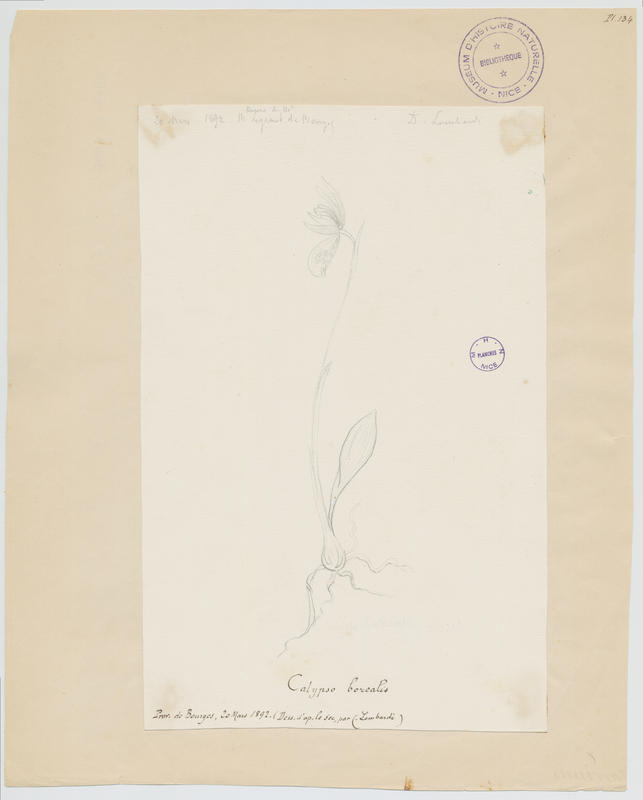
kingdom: Plantae
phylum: Tracheophyta
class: Liliopsida
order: Asparagales
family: Orchidaceae
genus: Calypso
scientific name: Calypso bulbosa
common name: Calypso
